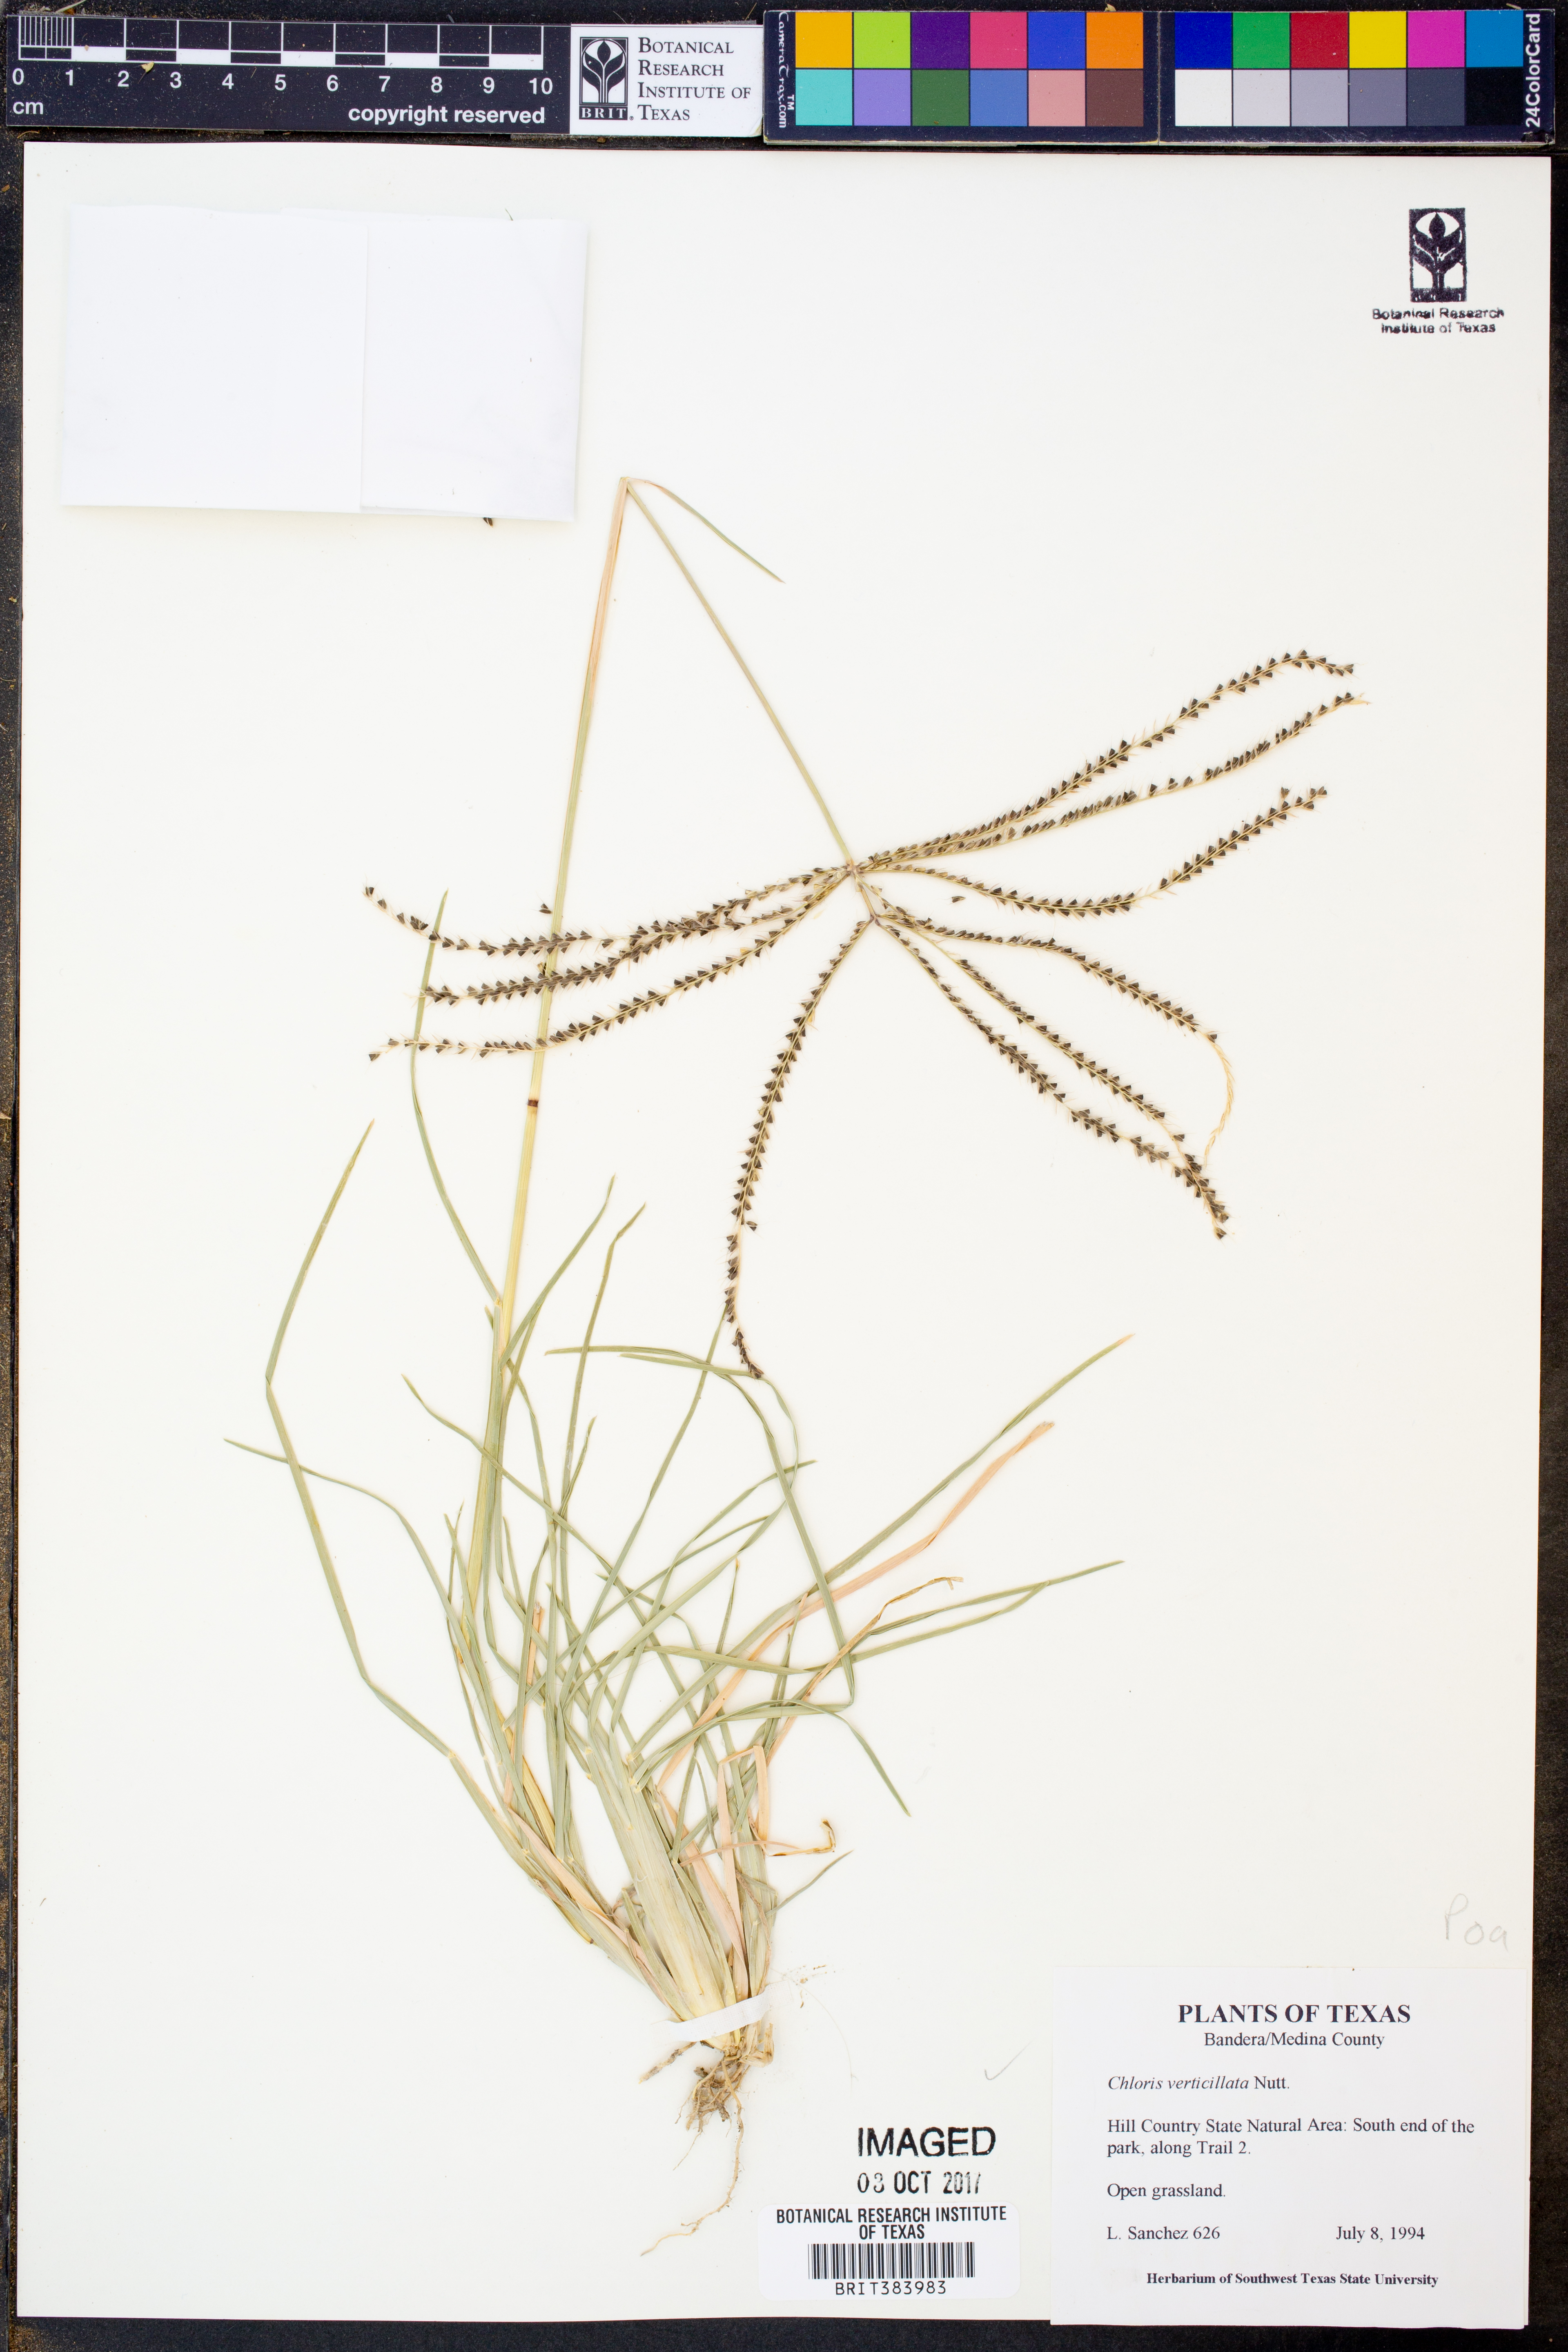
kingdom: Plantae
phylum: Tracheophyta
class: Liliopsida
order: Poales
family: Poaceae
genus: Chloris
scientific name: Chloris verticillata
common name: Tumble windmill grass
